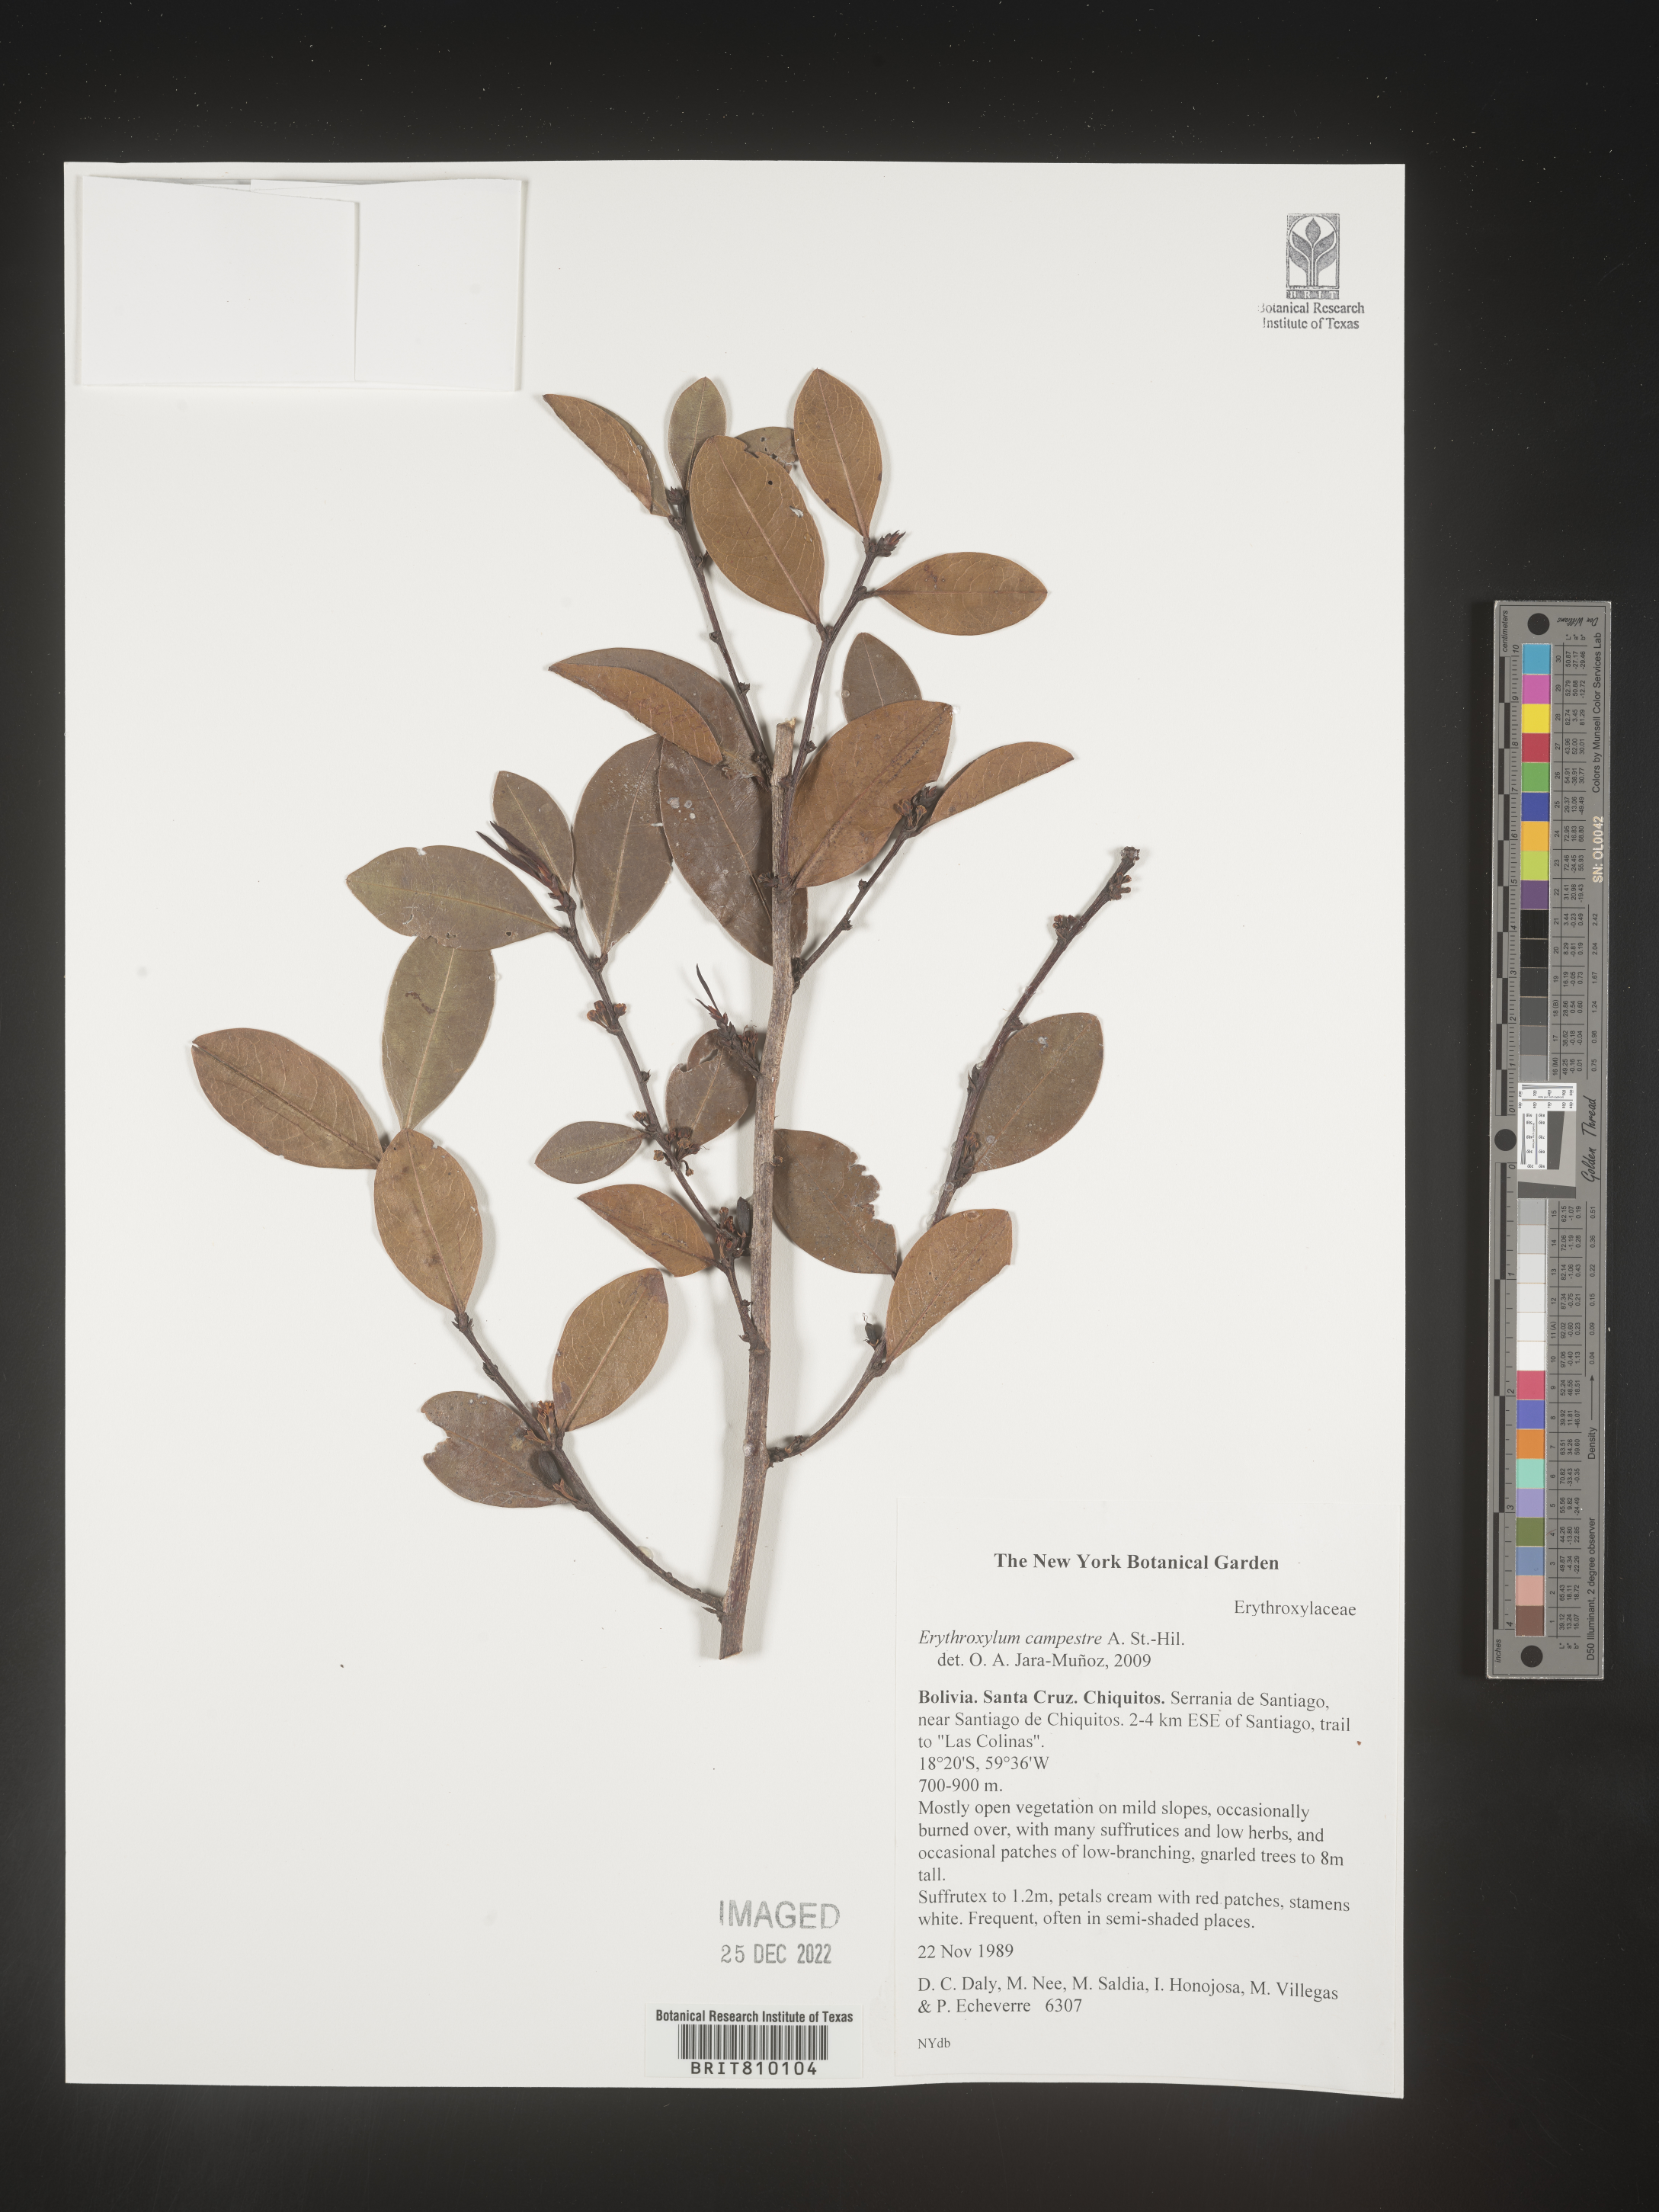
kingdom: Plantae
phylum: Tracheophyta
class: Magnoliopsida
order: Malpighiales
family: Erythroxylaceae
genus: Erythroxylum
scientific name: Erythroxylum
